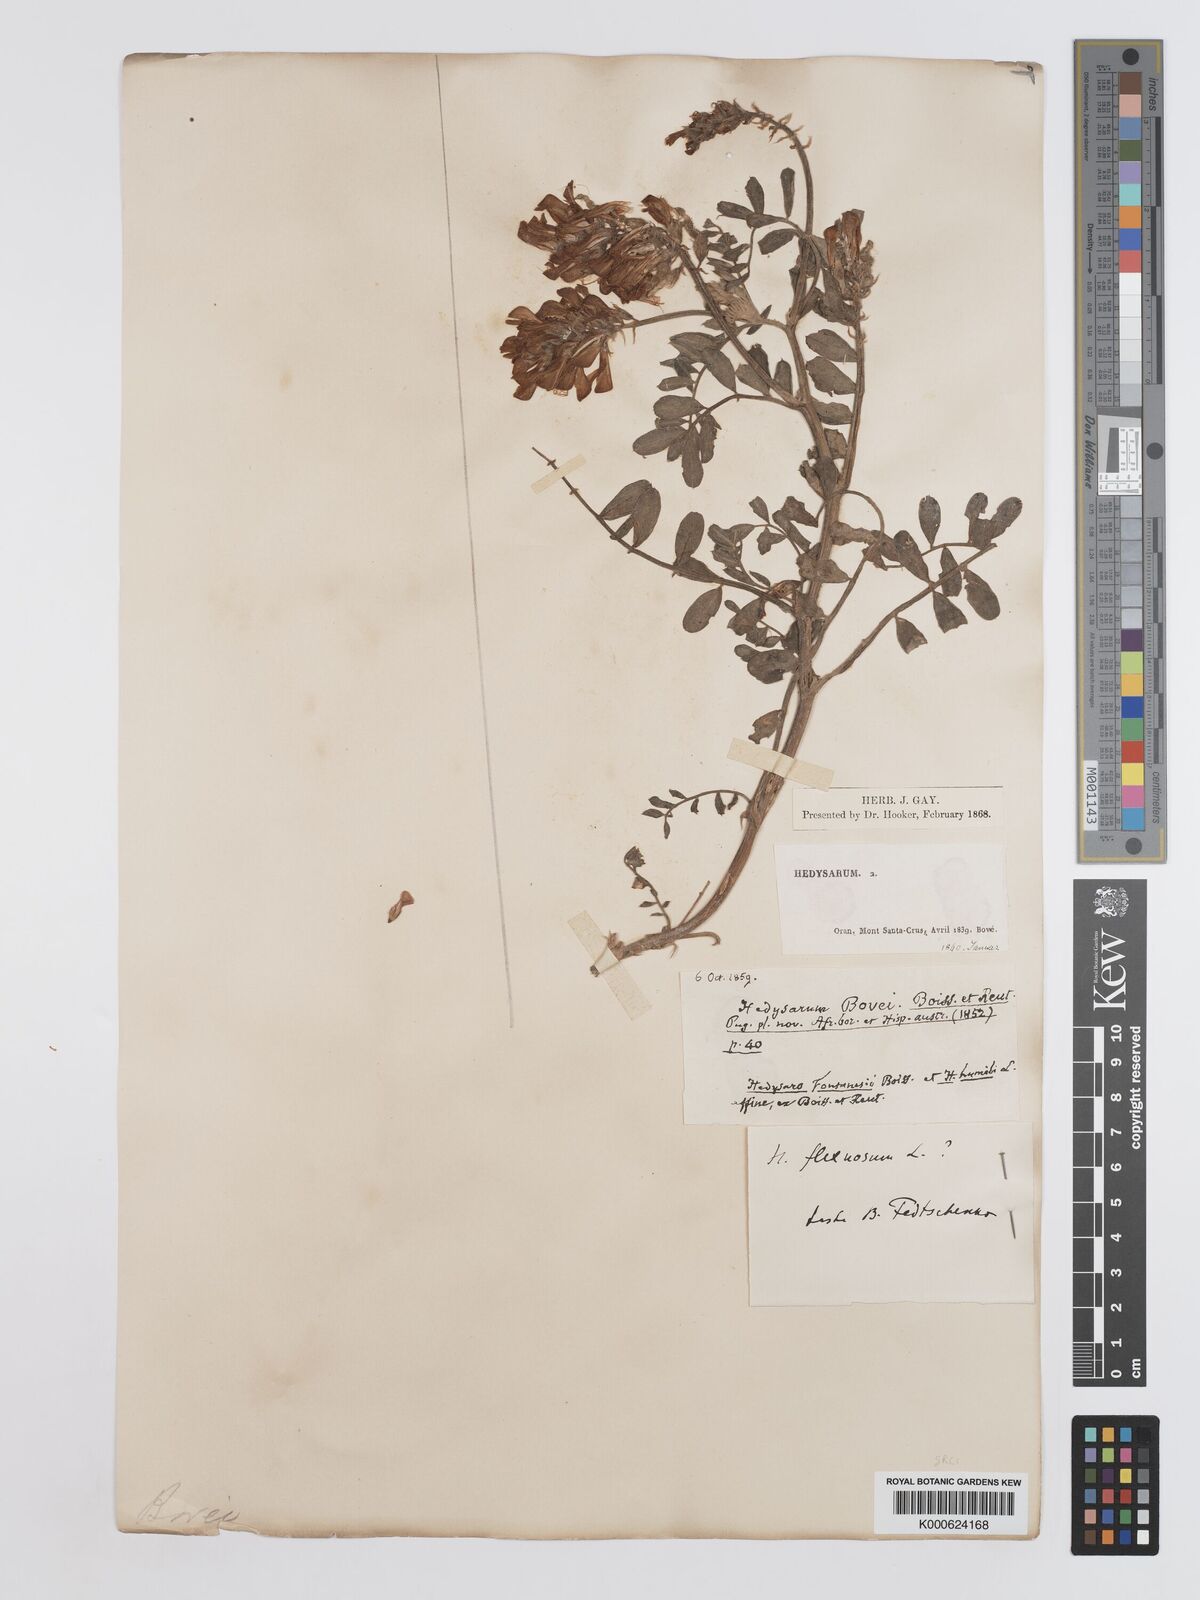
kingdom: Plantae
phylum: Tracheophyta
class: Magnoliopsida
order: Fabales
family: Fabaceae
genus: Sulla
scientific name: Sulla flexuosa
